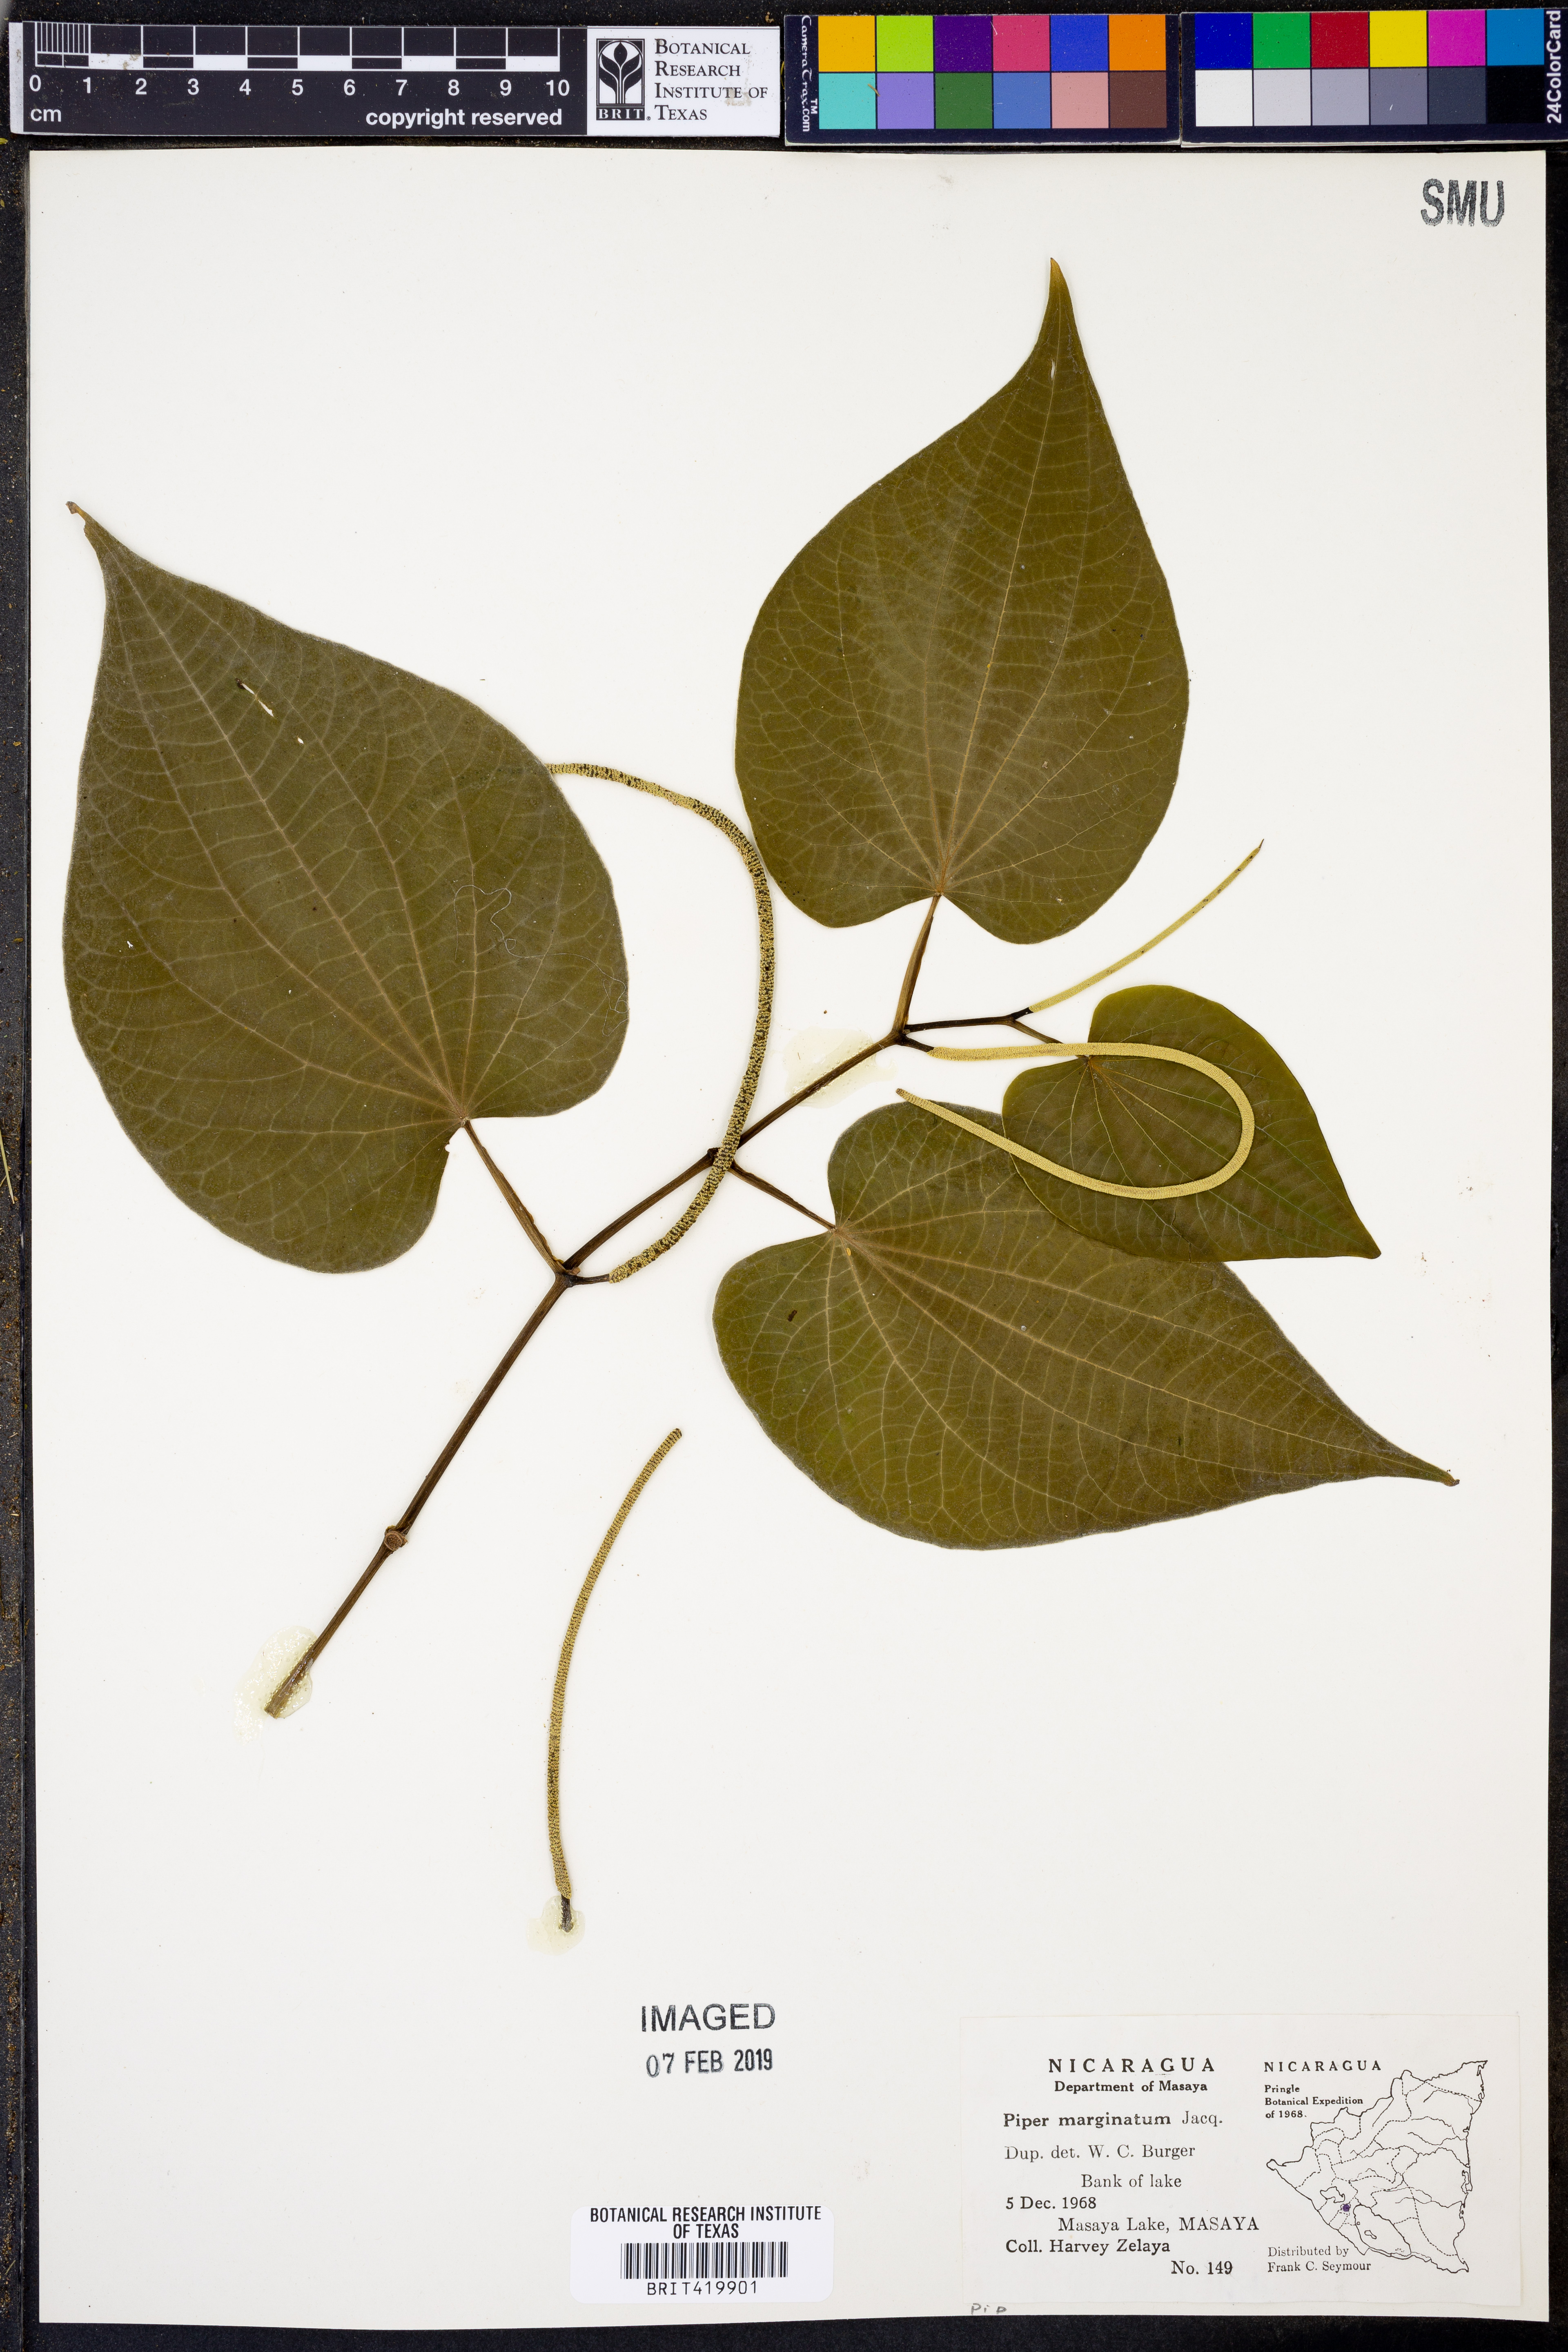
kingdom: Plantae
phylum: Tracheophyta
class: Magnoliopsida
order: Piperales
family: Piperaceae
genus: Piper
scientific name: Piper marginatum
